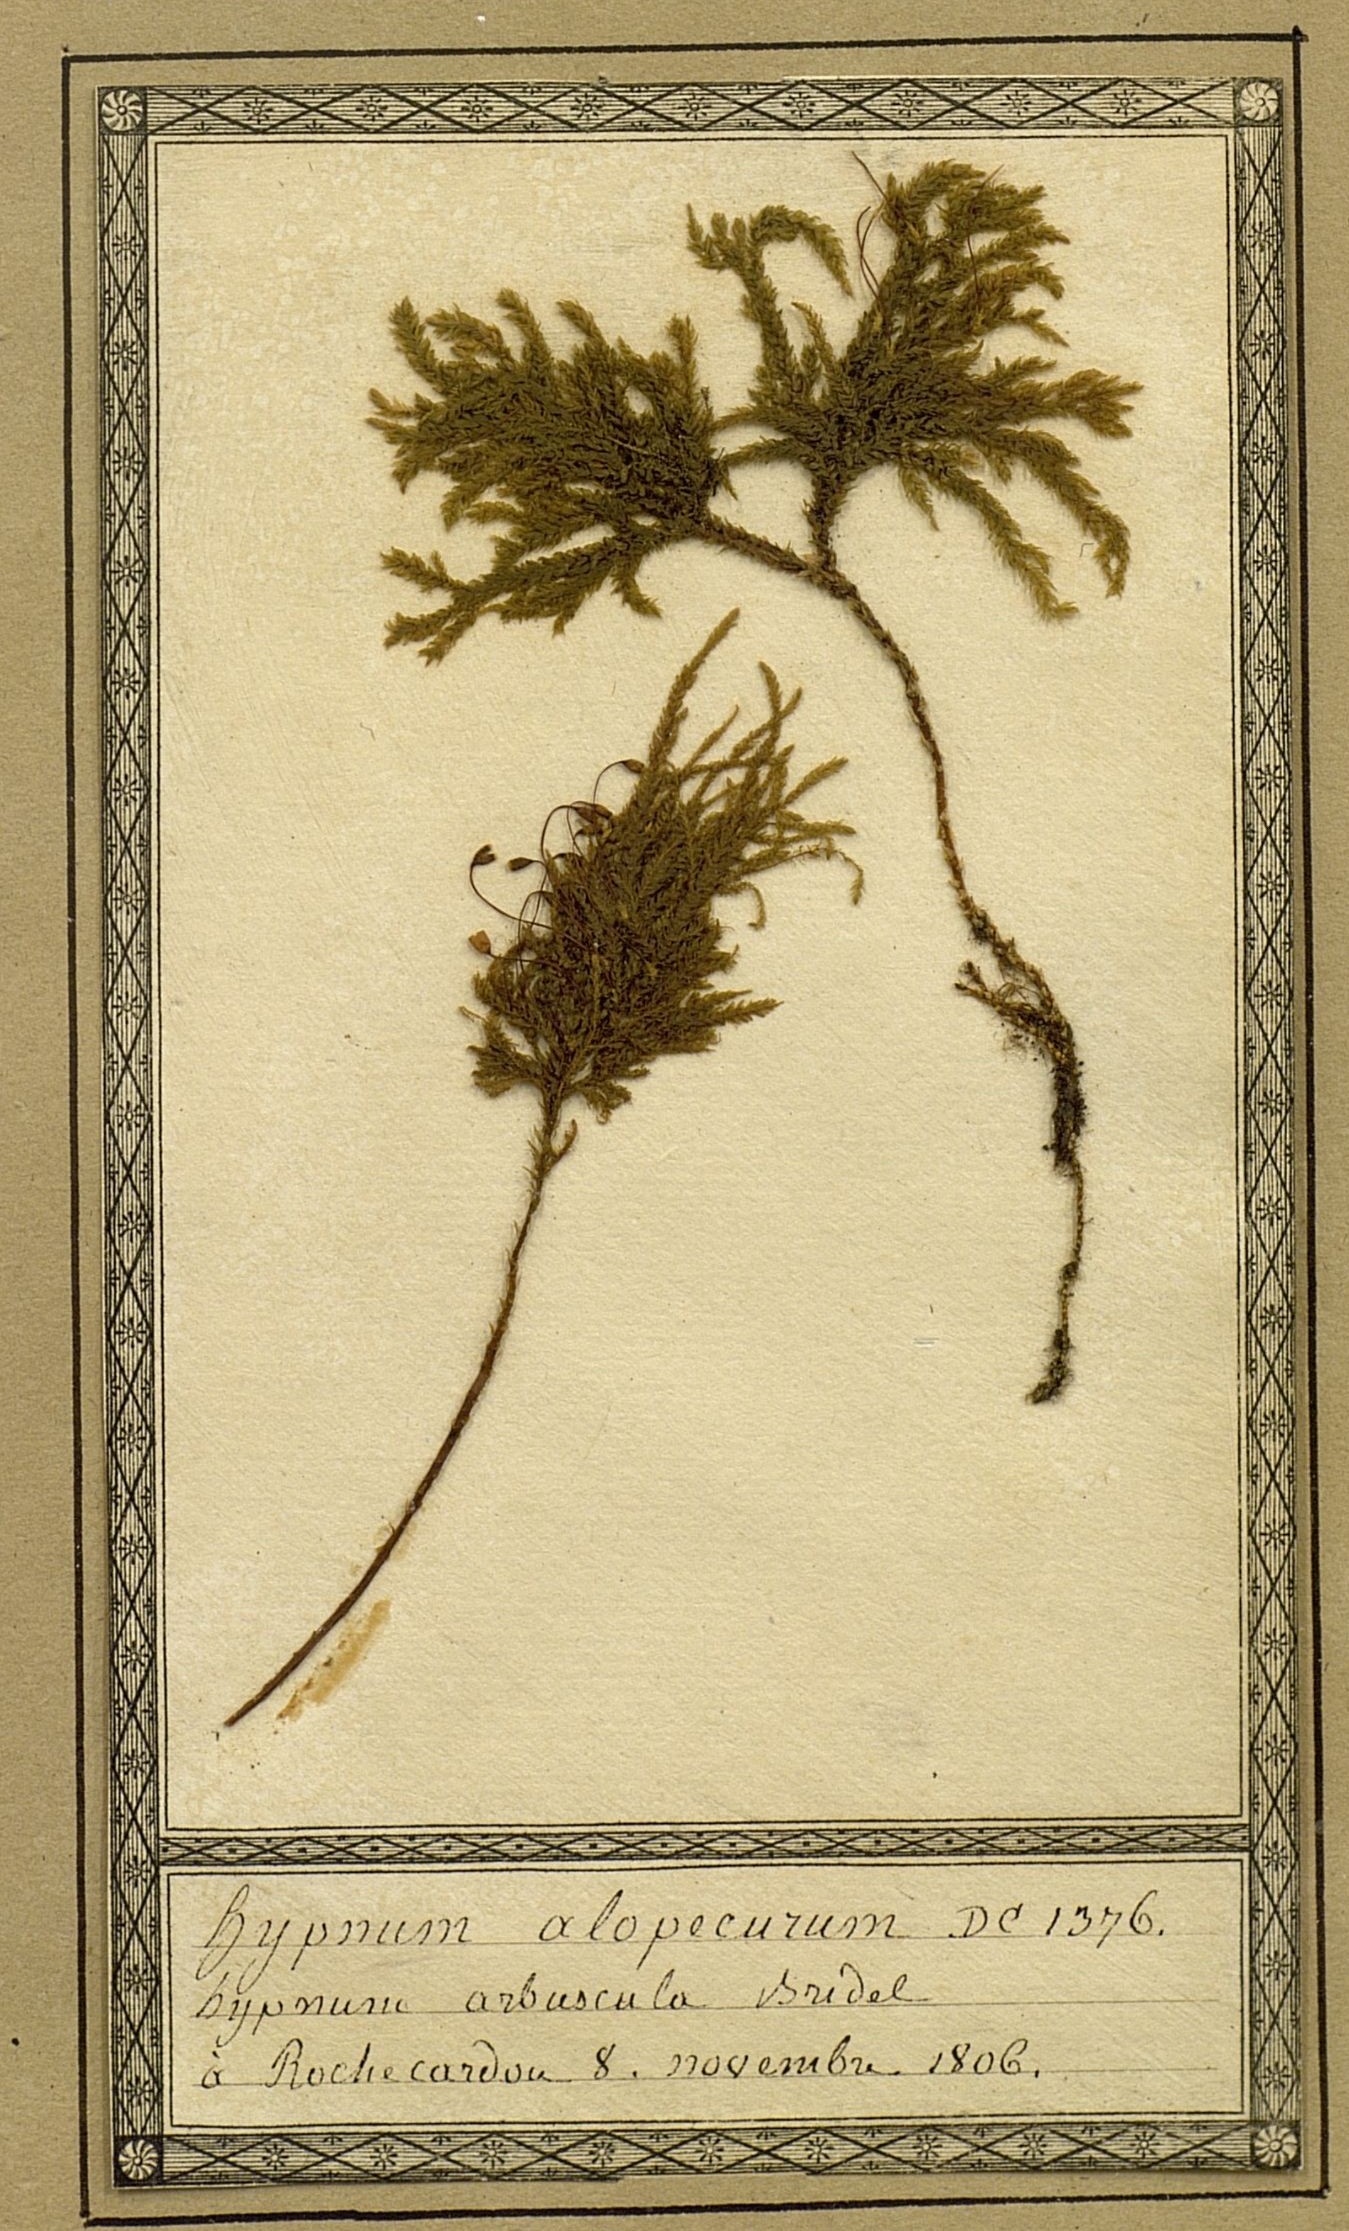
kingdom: Plantae
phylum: Bryophyta
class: Bryopsida
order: Hypnales
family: Neckeraceae
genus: Thamnobryum
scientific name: Thamnobryum alopecurum
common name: Fox-tail feather-moss
